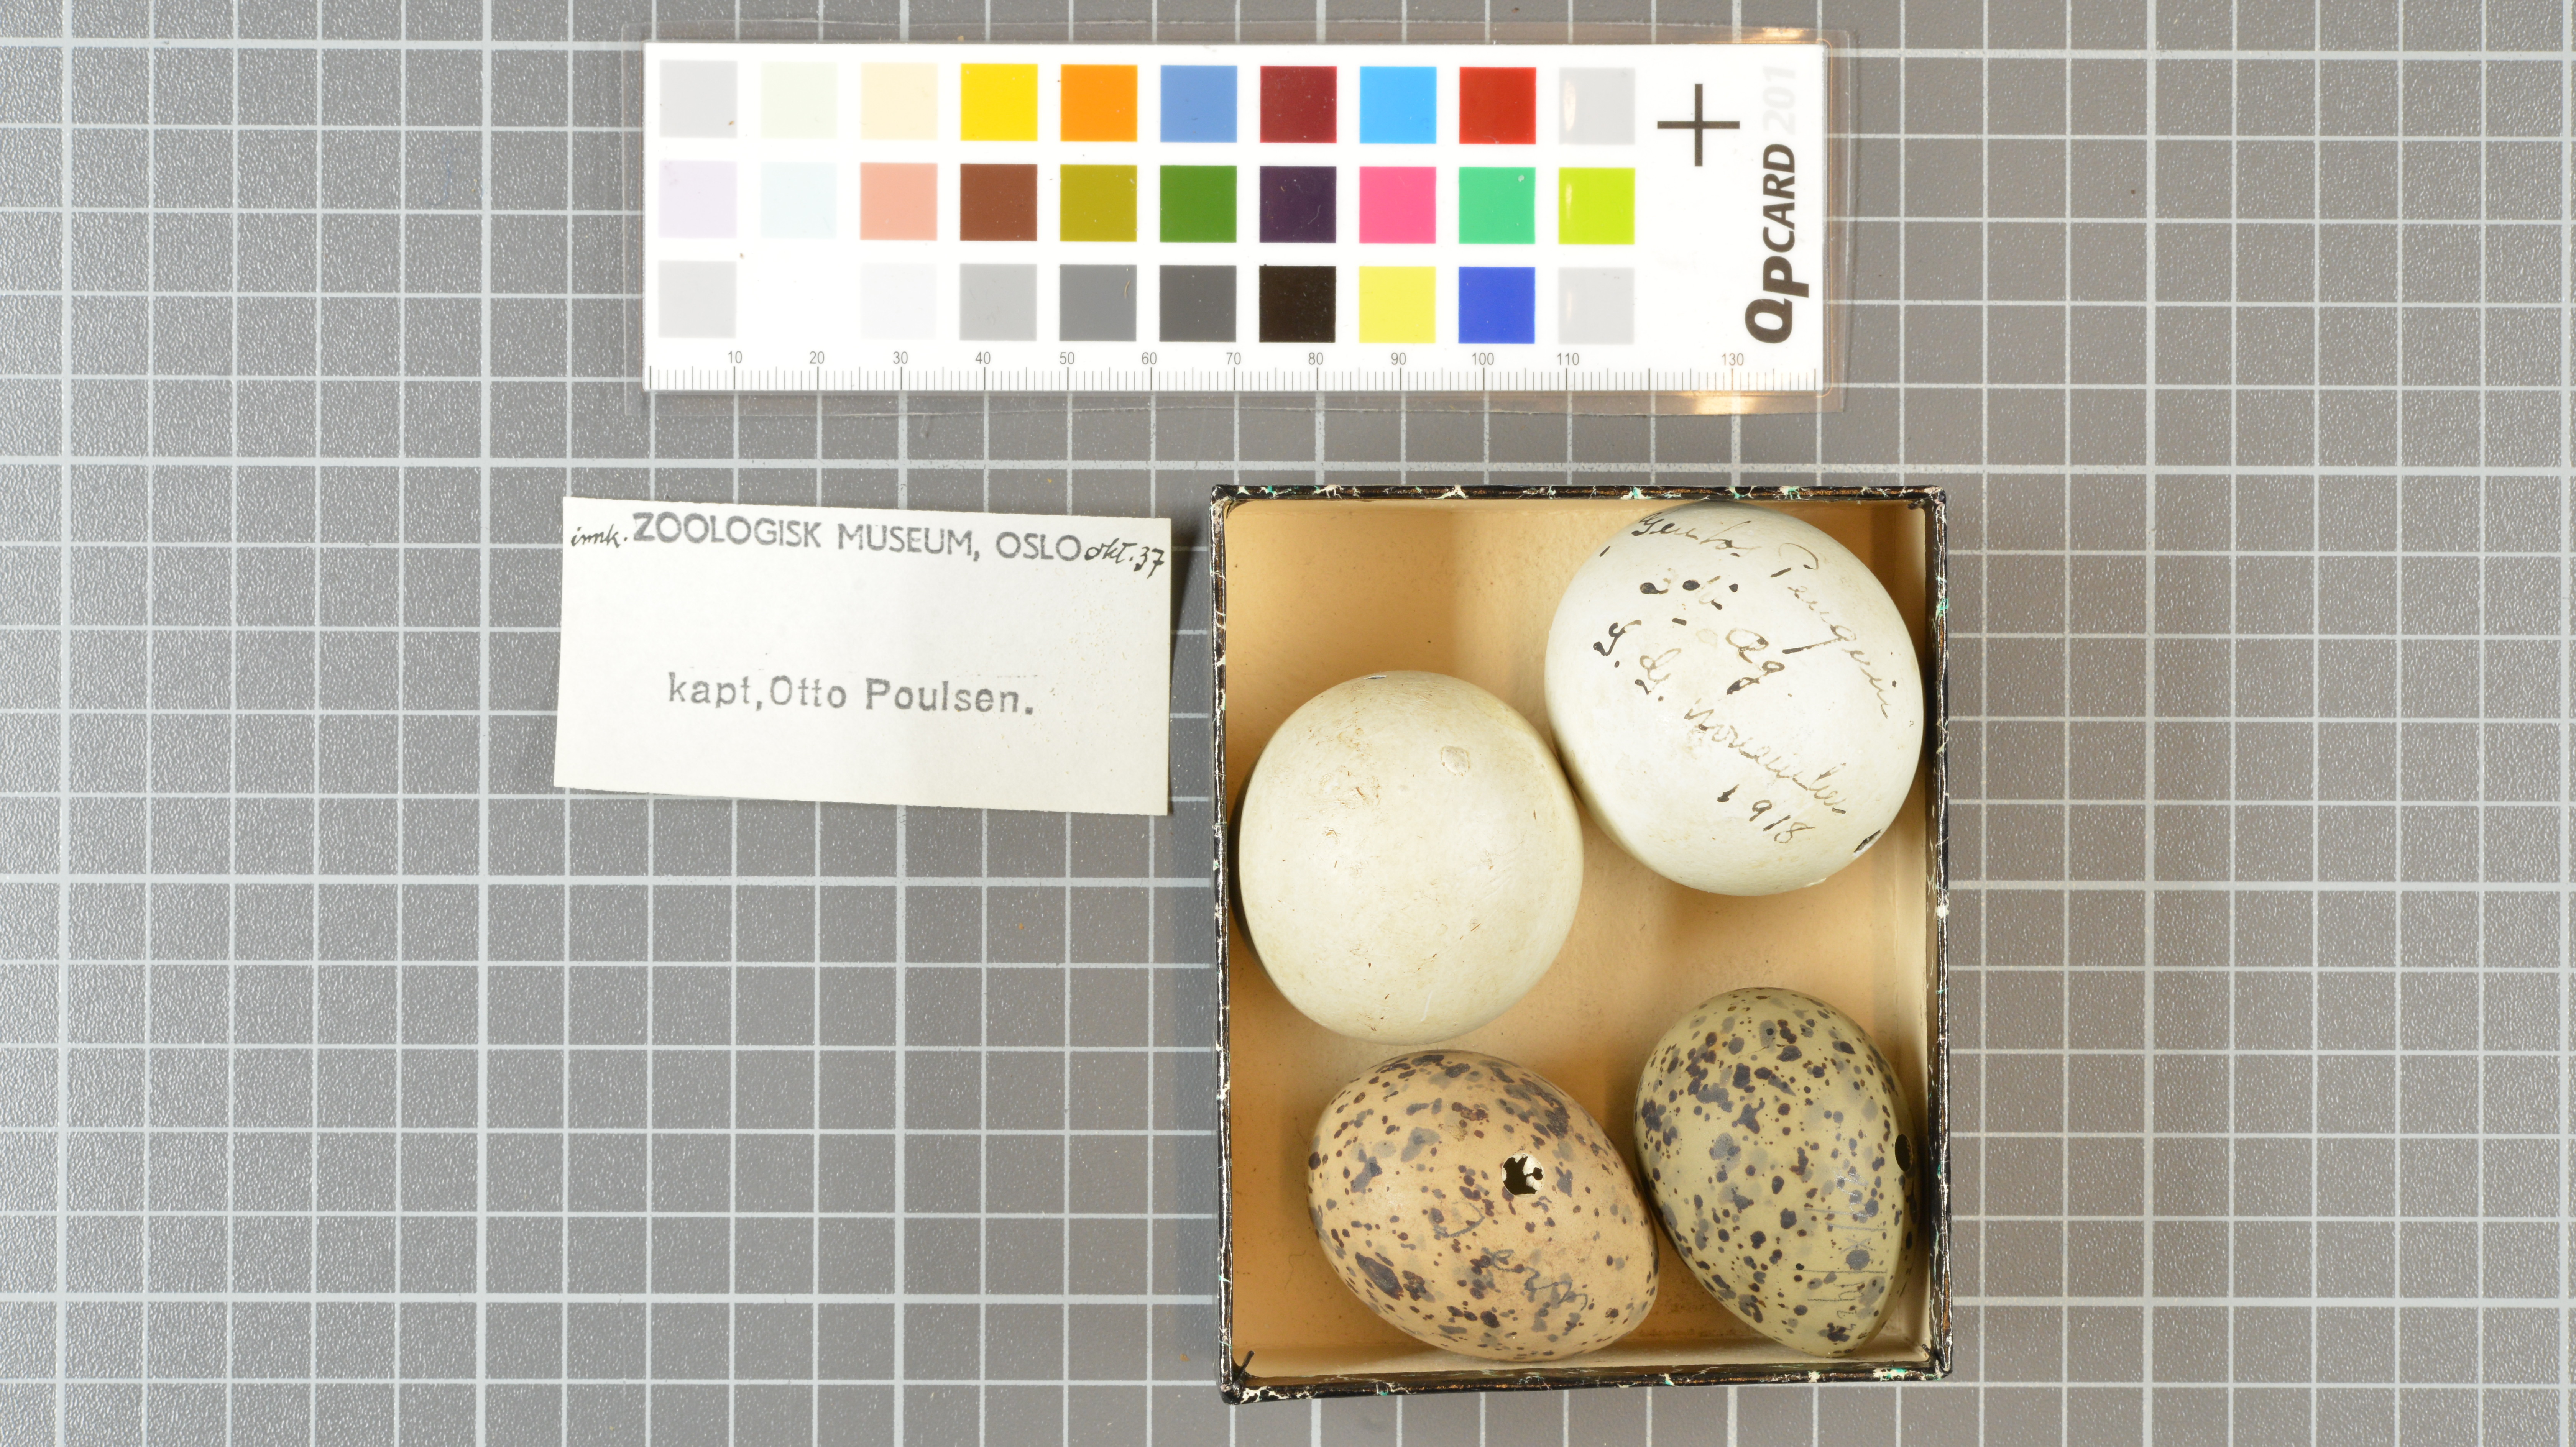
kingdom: Animalia
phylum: Chordata
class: Aves
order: Sphenisciformes
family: Spheniscidae
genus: Pygoscelis
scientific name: Pygoscelis papua
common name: Gentoo penguin
